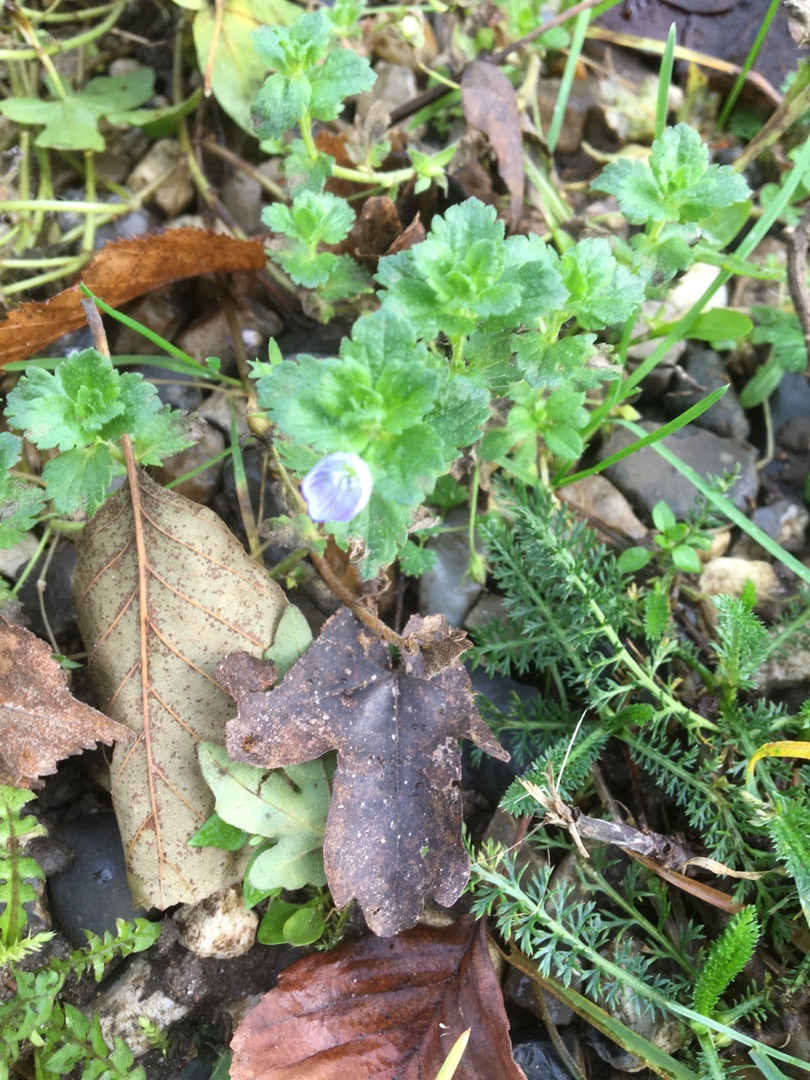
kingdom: Plantae
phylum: Tracheophyta
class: Magnoliopsida
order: Lamiales
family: Plantaginaceae
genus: Veronica
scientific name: Veronica persica
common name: Storkronet ærenpris
